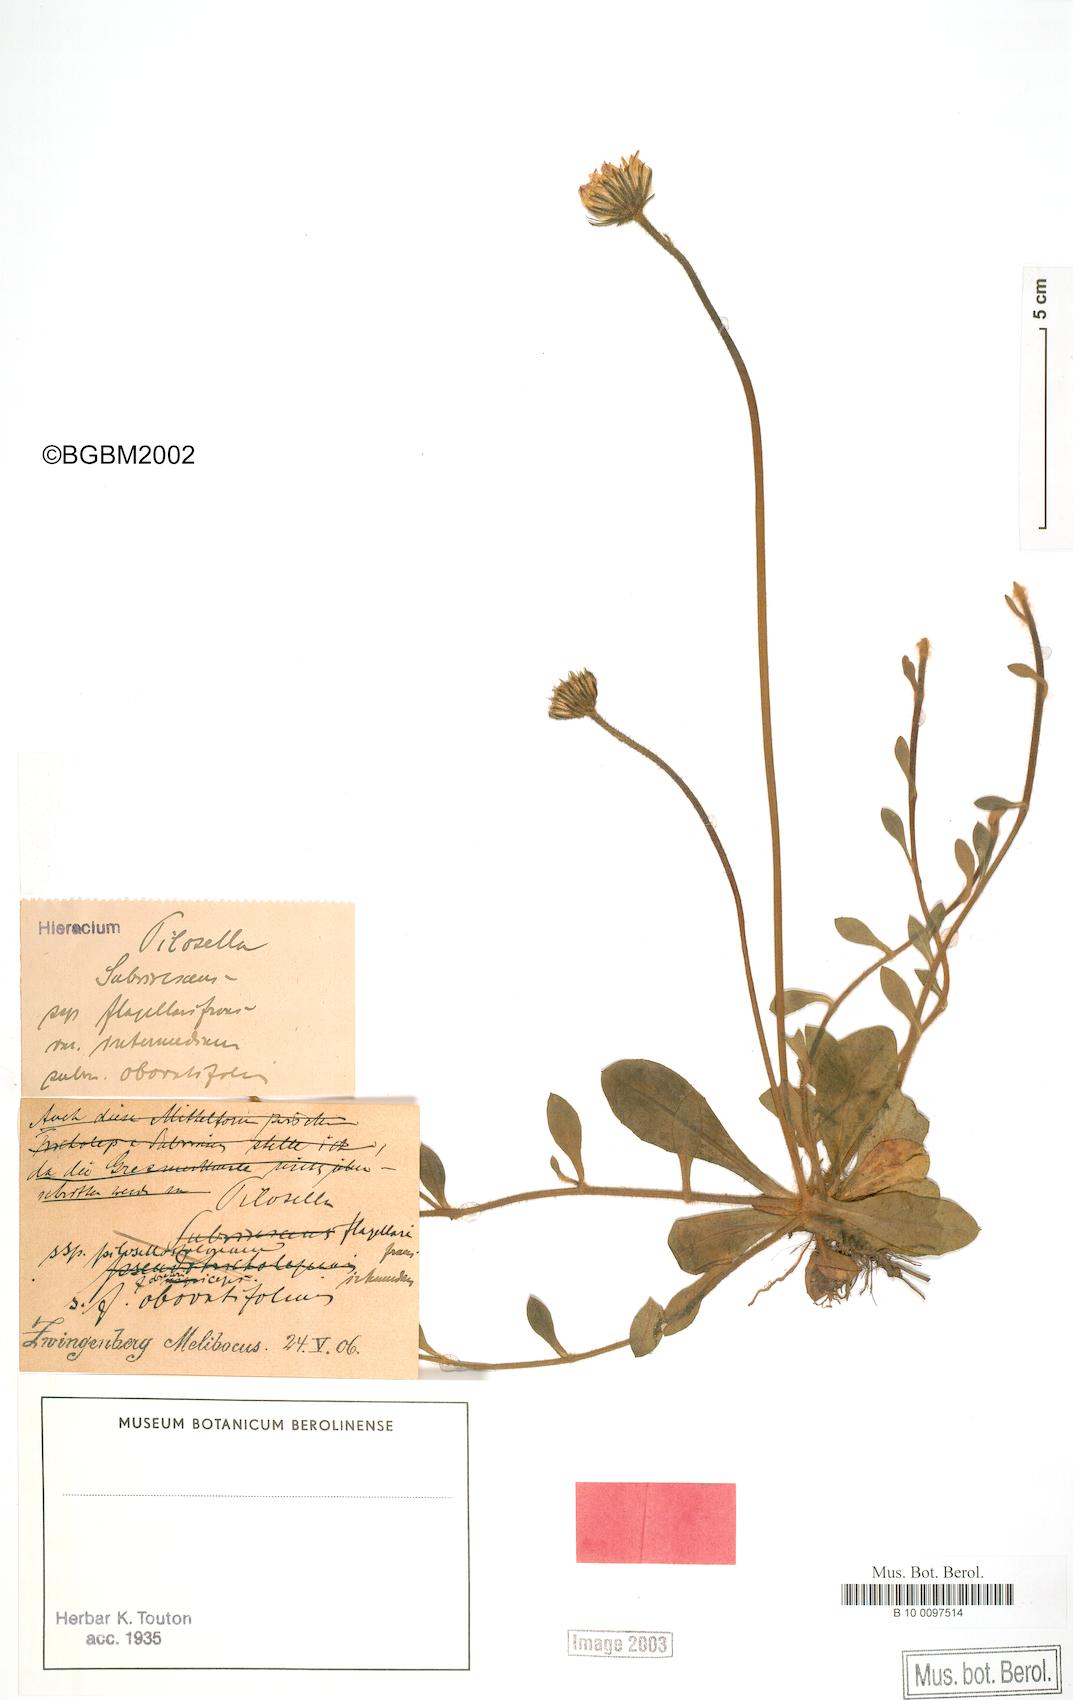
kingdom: Plantae
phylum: Tracheophyta
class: Magnoliopsida
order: Asterales
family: Asteraceae
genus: Pilosella
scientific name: Pilosella officinarum
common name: Mouse-ear hawkweed
